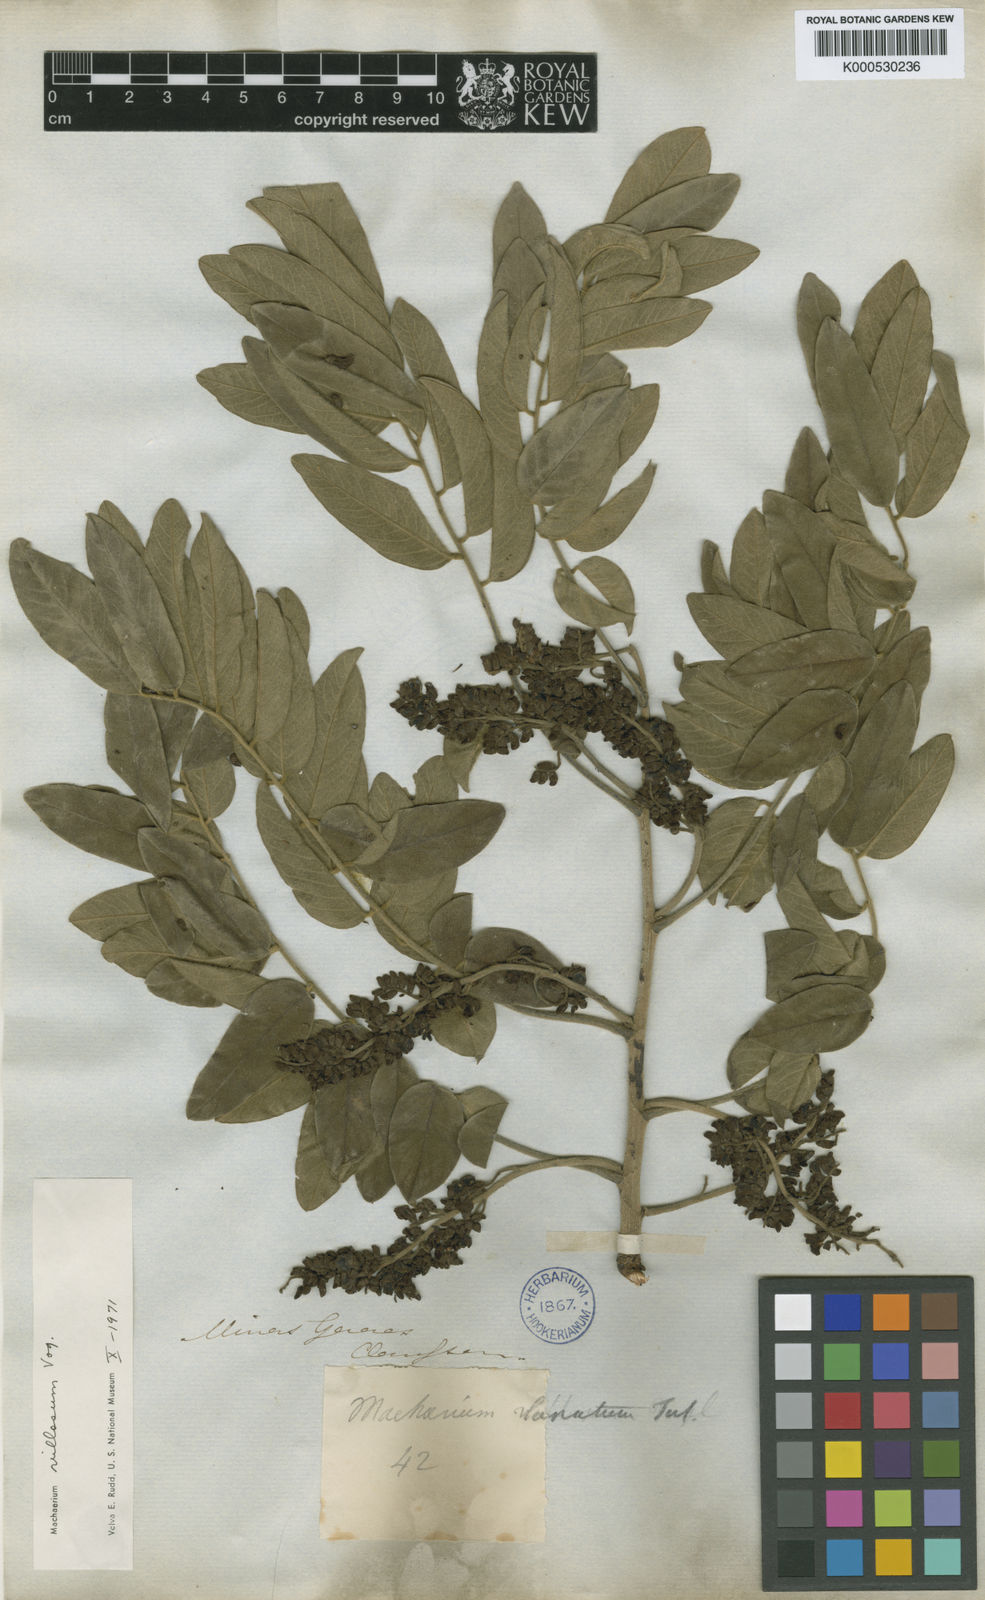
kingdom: Plantae
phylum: Tracheophyta
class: Magnoliopsida
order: Fabales
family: Fabaceae
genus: Machaerium
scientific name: Machaerium villosum
